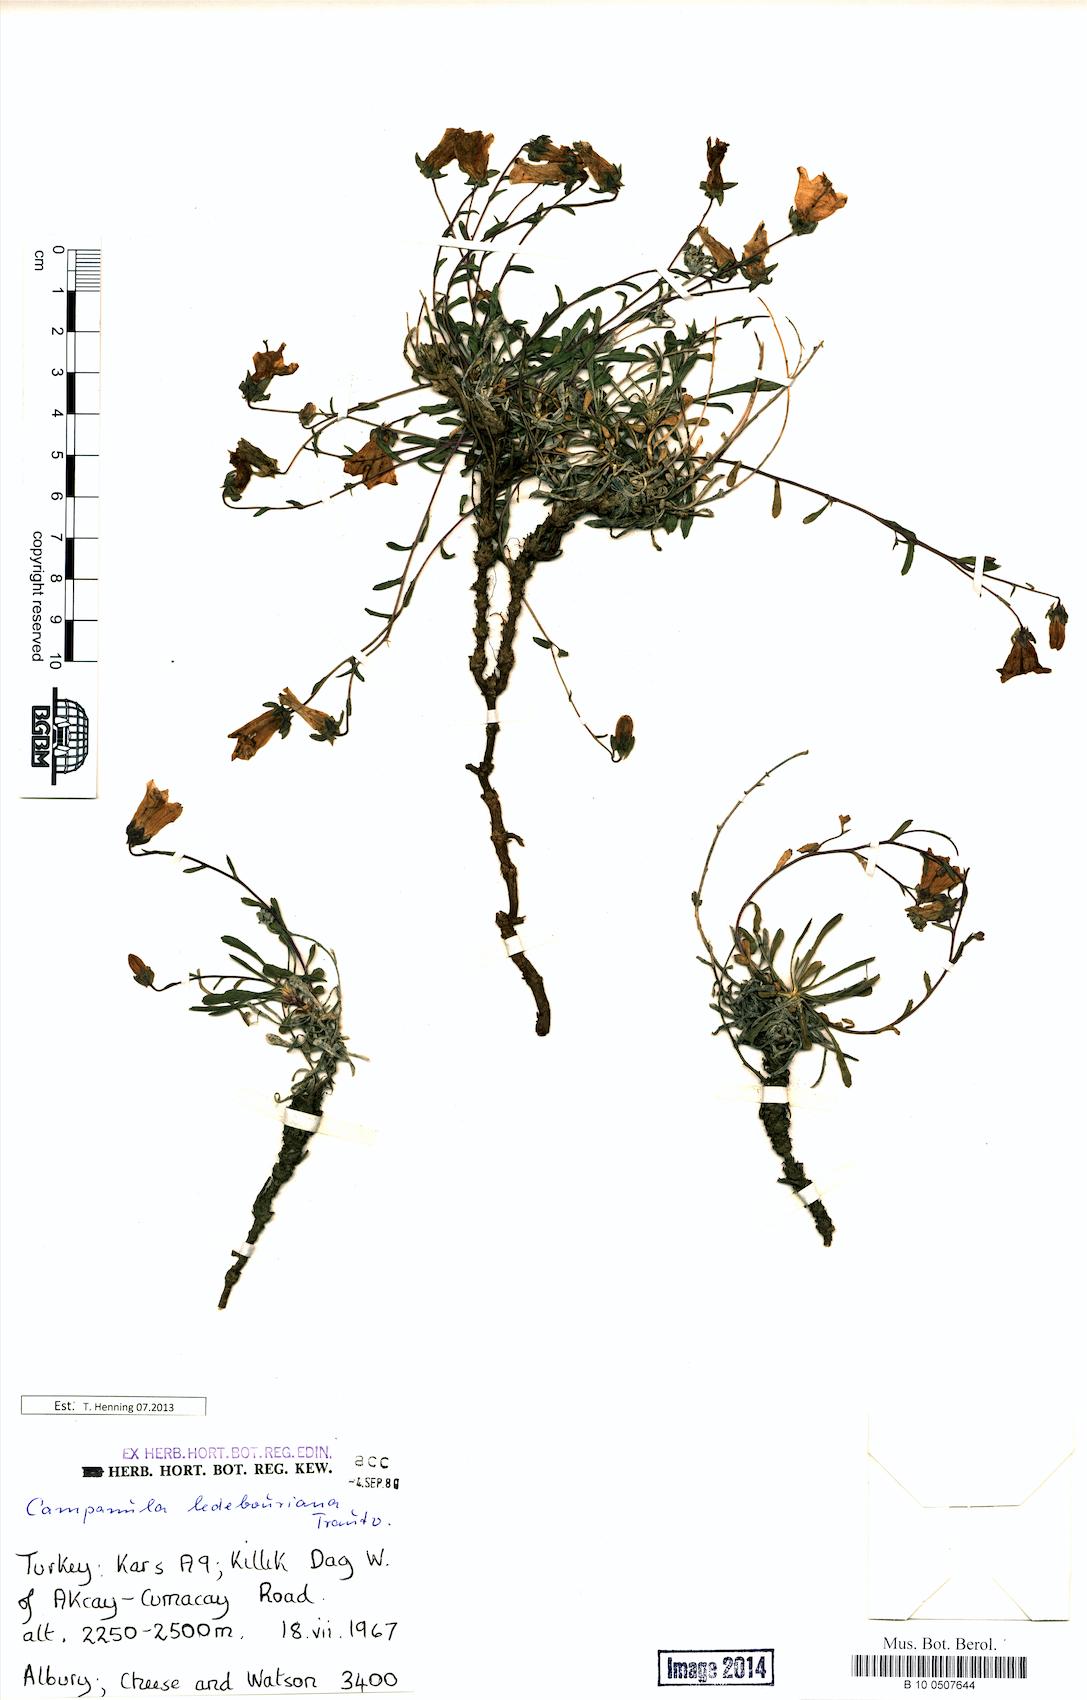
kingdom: Plantae
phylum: Tracheophyta
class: Magnoliopsida
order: Asterales
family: Campanulaceae
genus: Campanula
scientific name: Campanula ledebouriana
